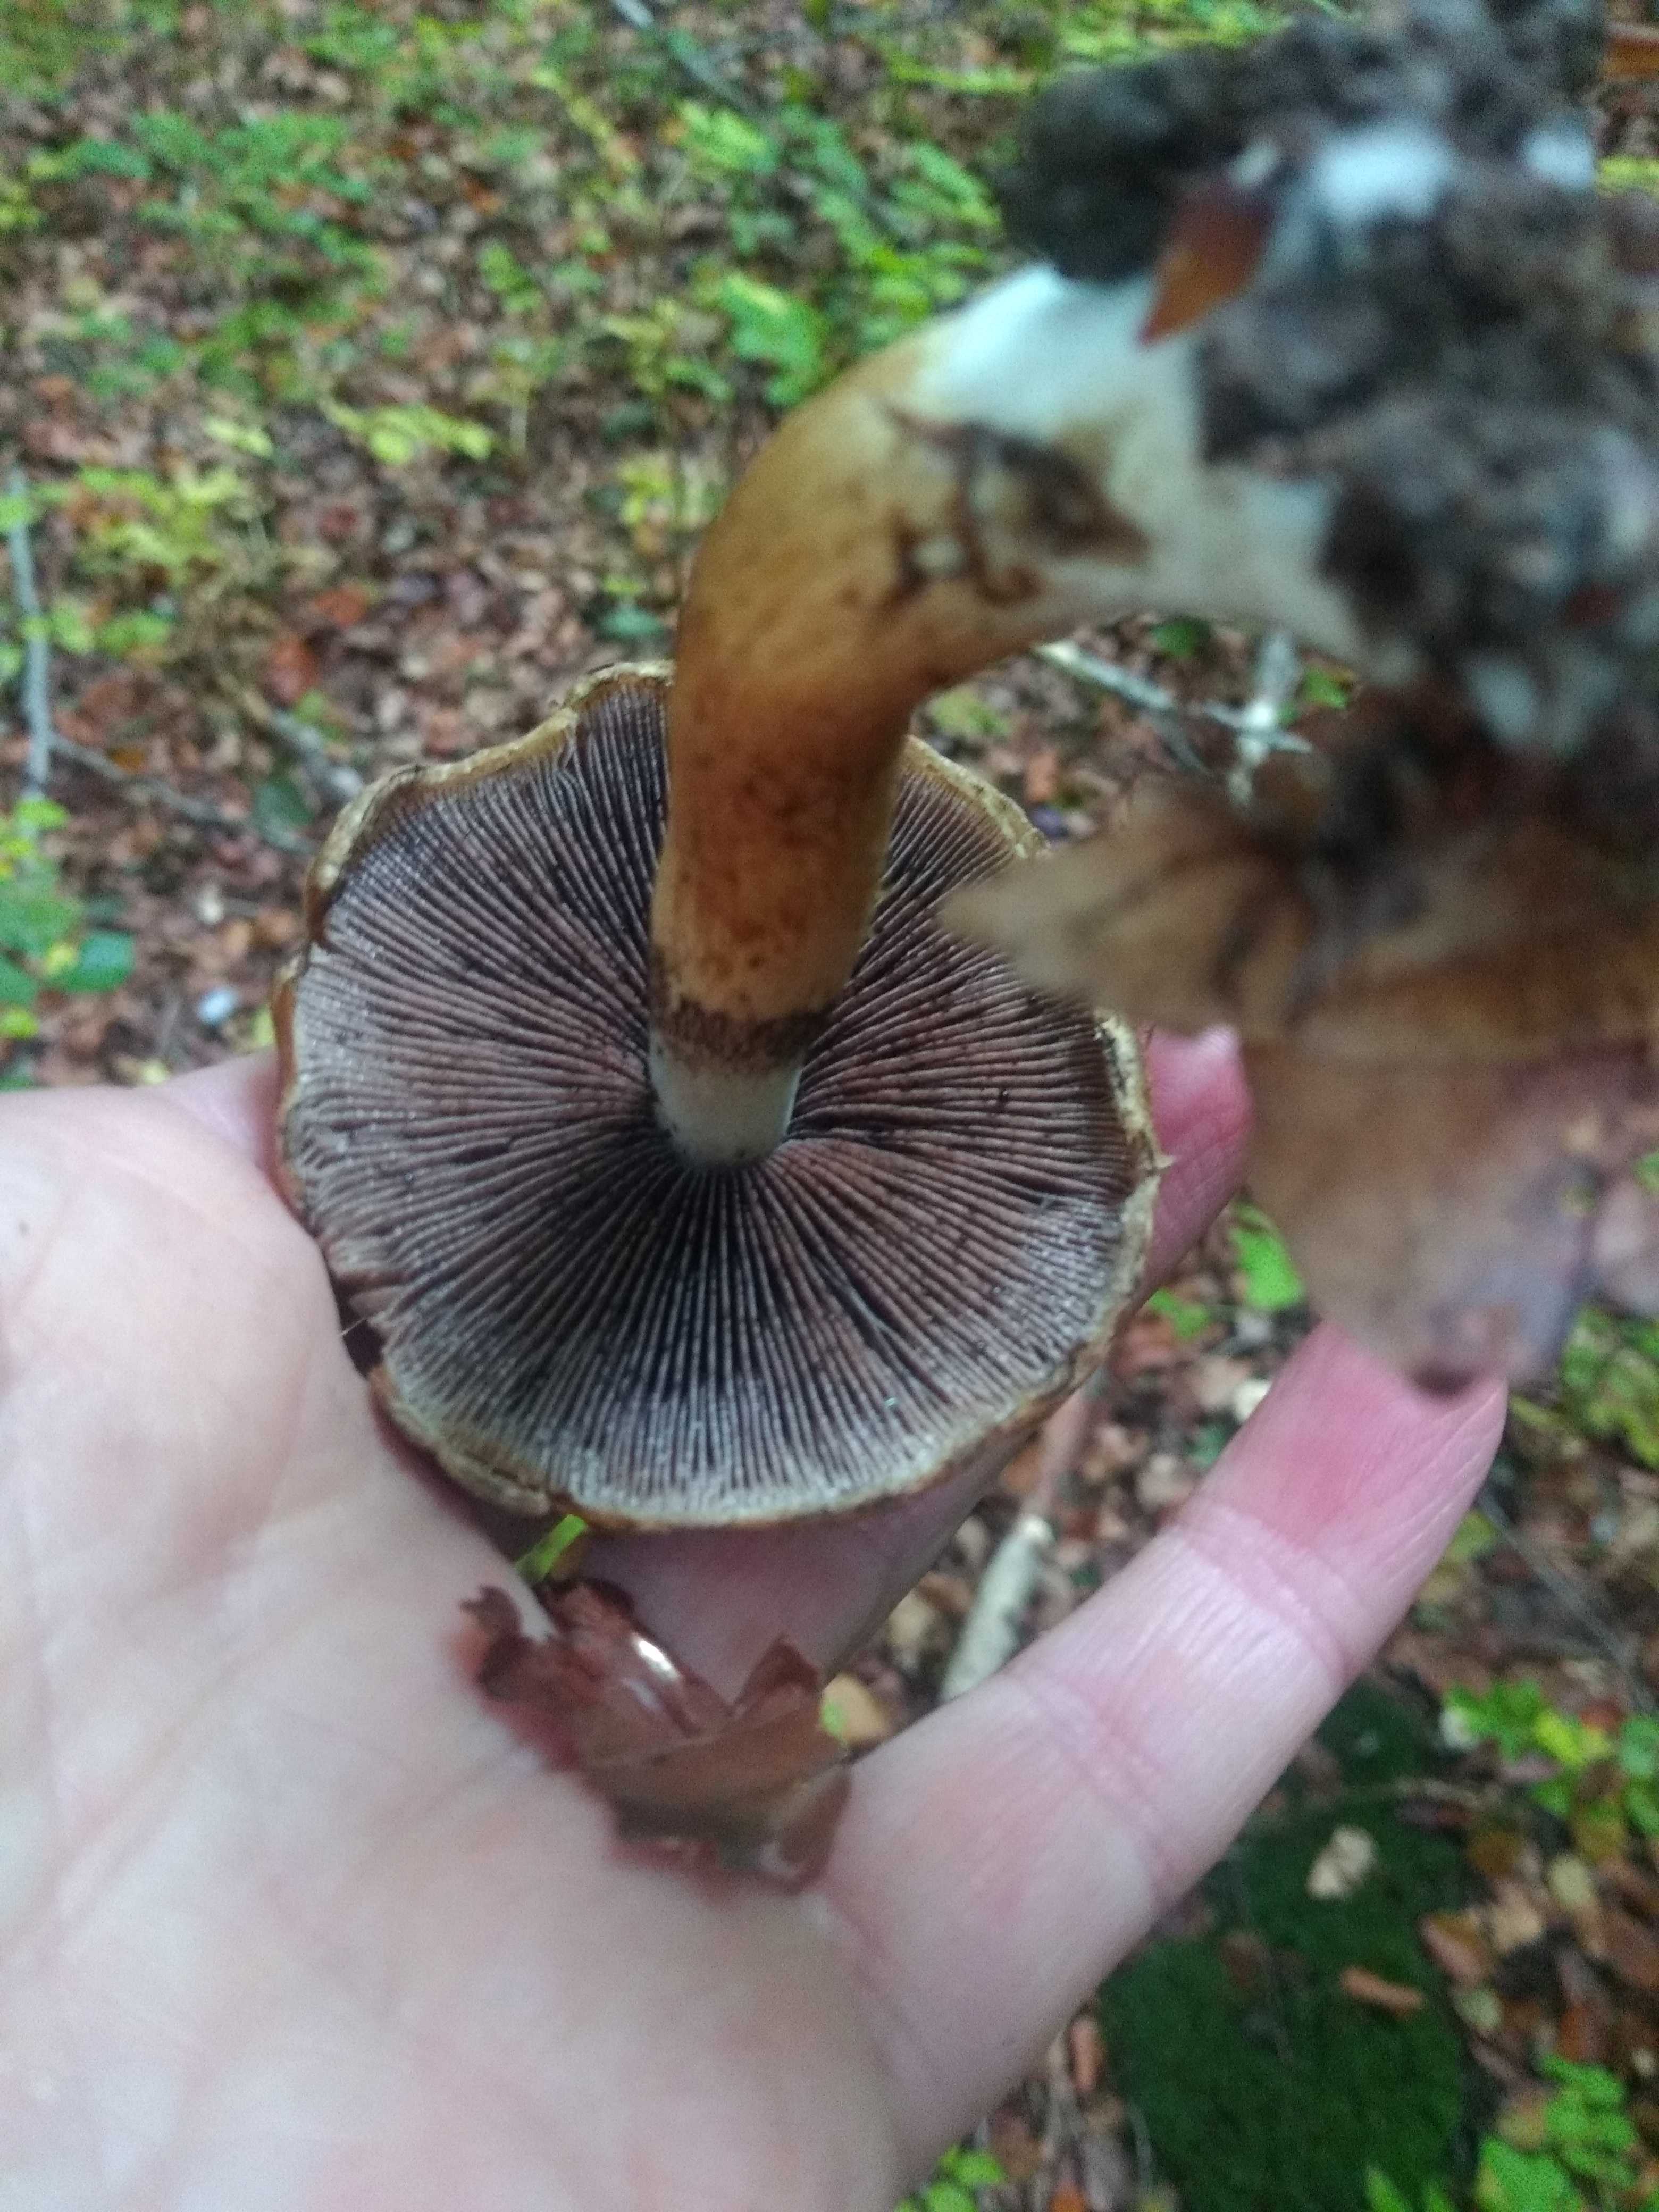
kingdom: Fungi
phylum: Basidiomycota
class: Agaricomycetes
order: Agaricales
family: Psathyrellaceae
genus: Lacrymaria
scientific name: Lacrymaria lacrymabunda
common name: grædende mørkhat
